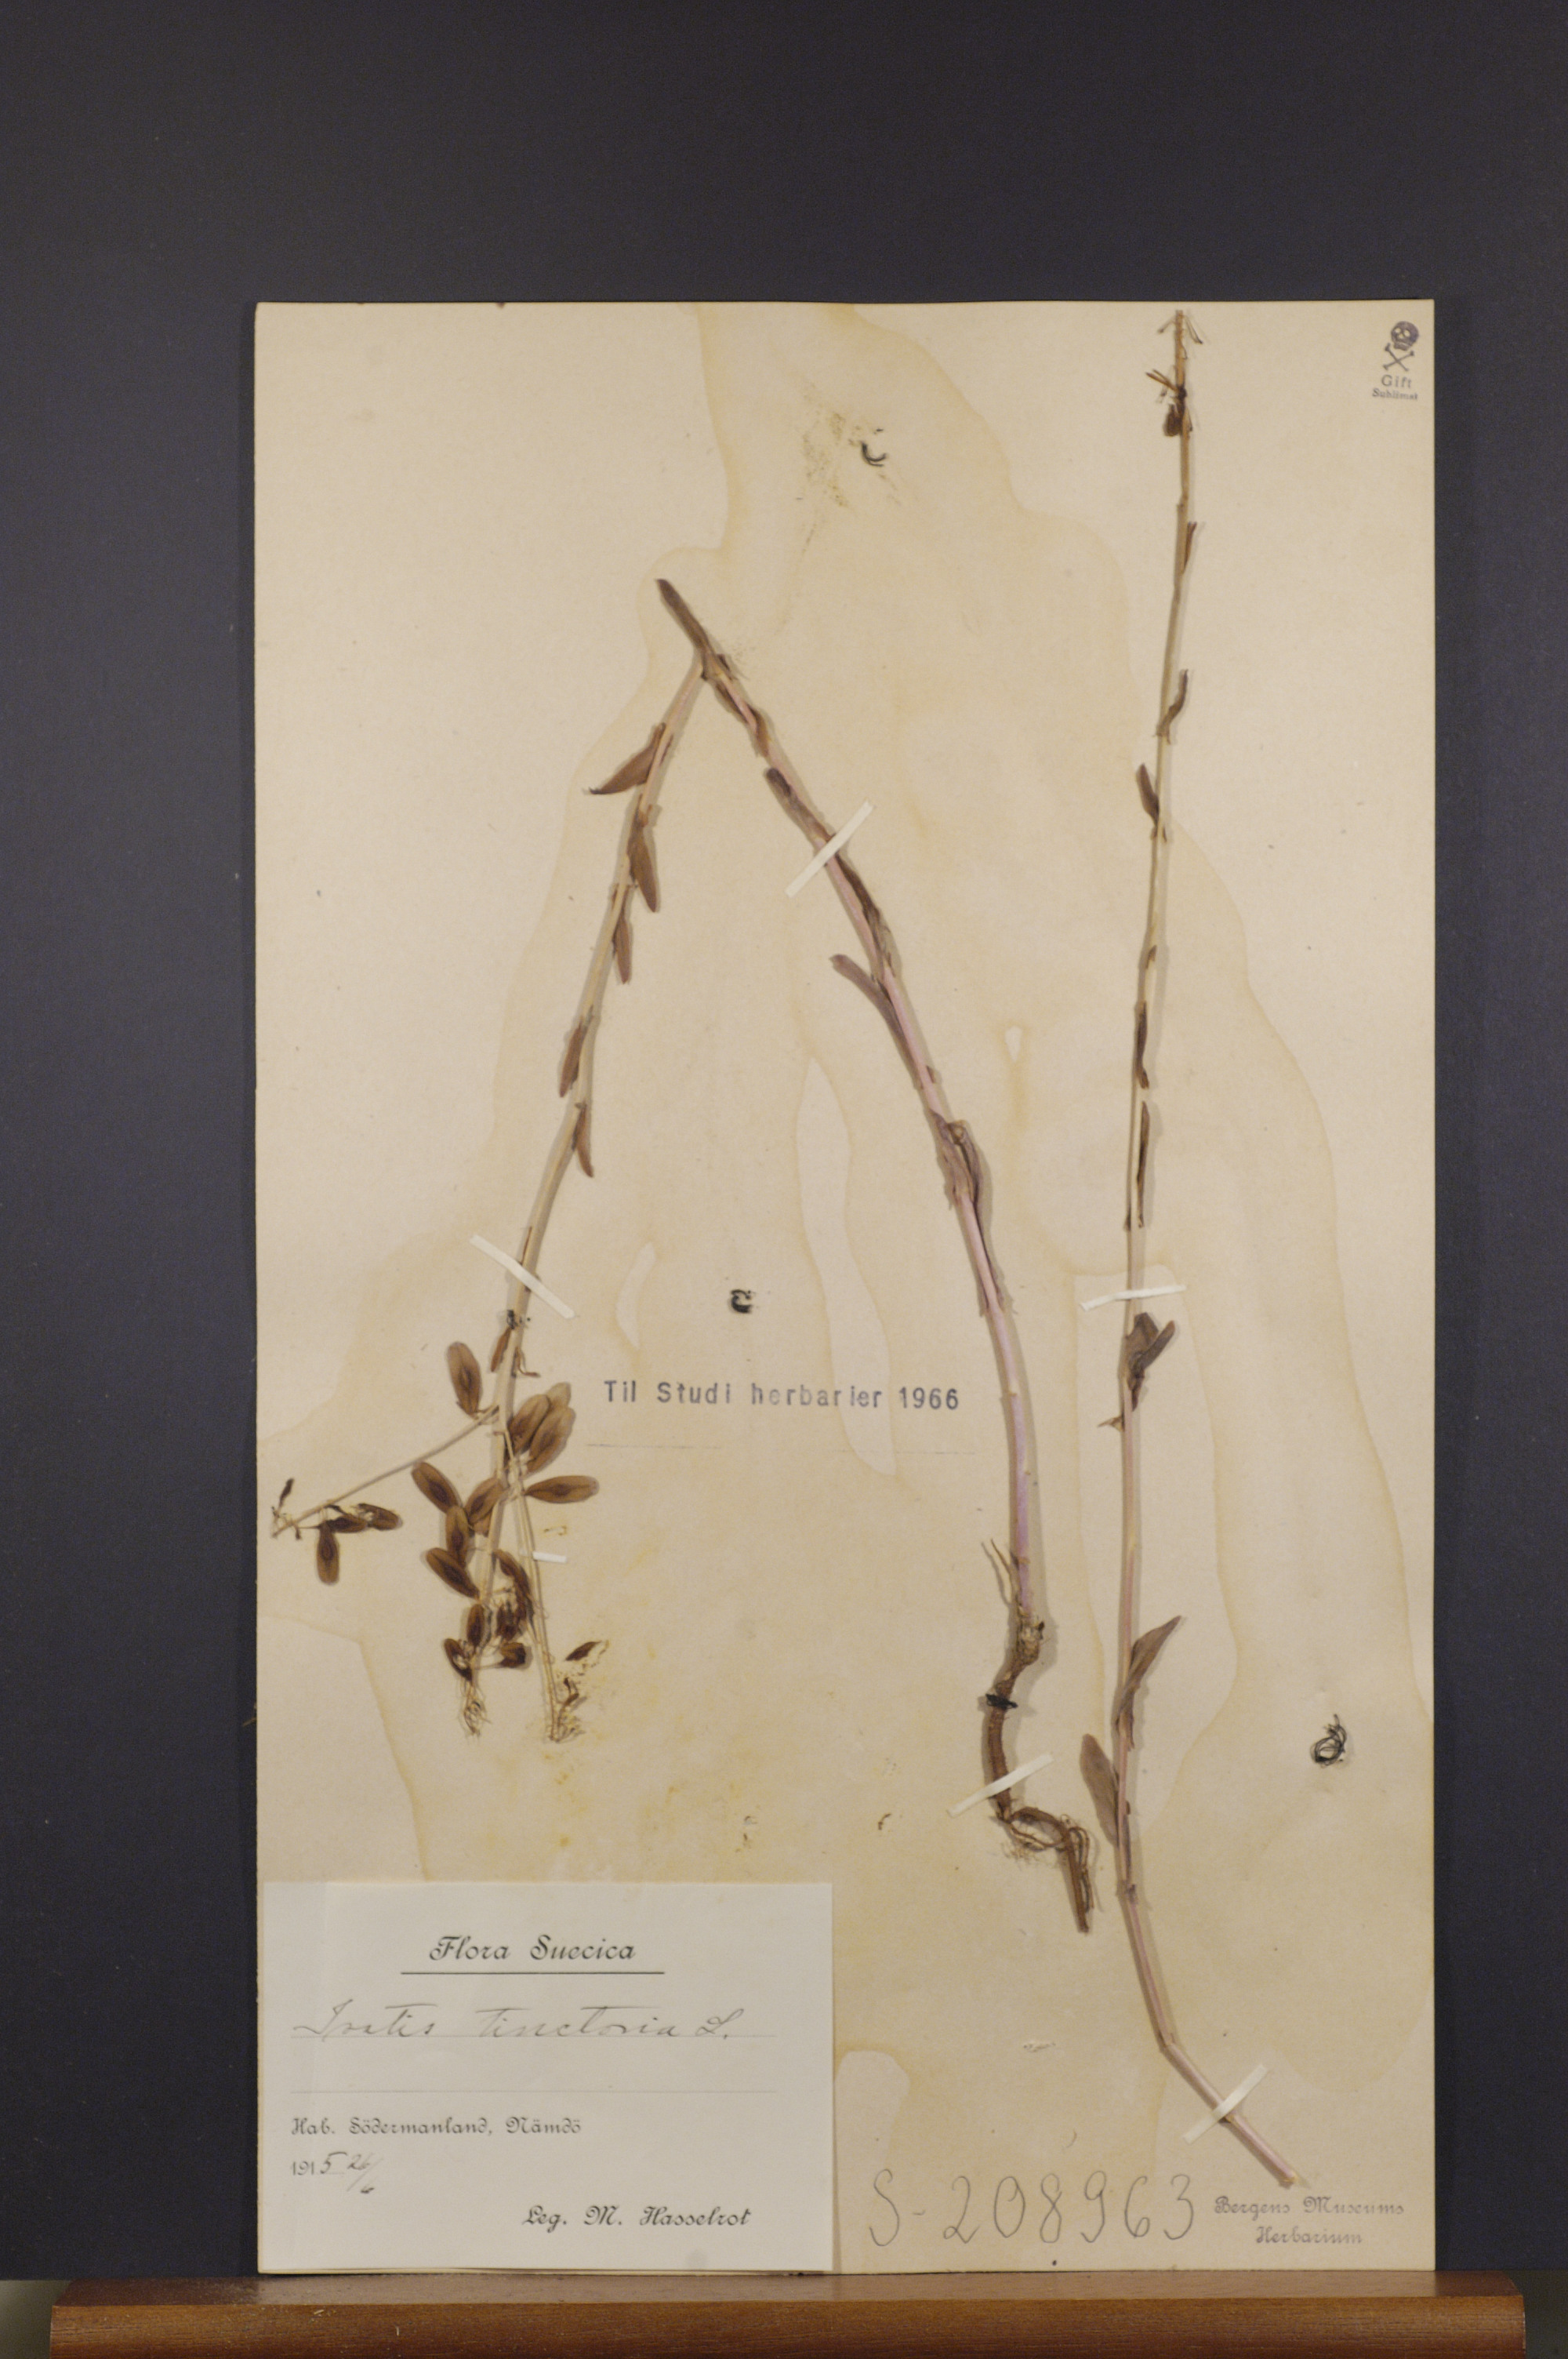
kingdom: Plantae
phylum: Tracheophyta
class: Magnoliopsida
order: Brassicales
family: Brassicaceae
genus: Isatis
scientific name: Isatis tinctoria
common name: Woad
